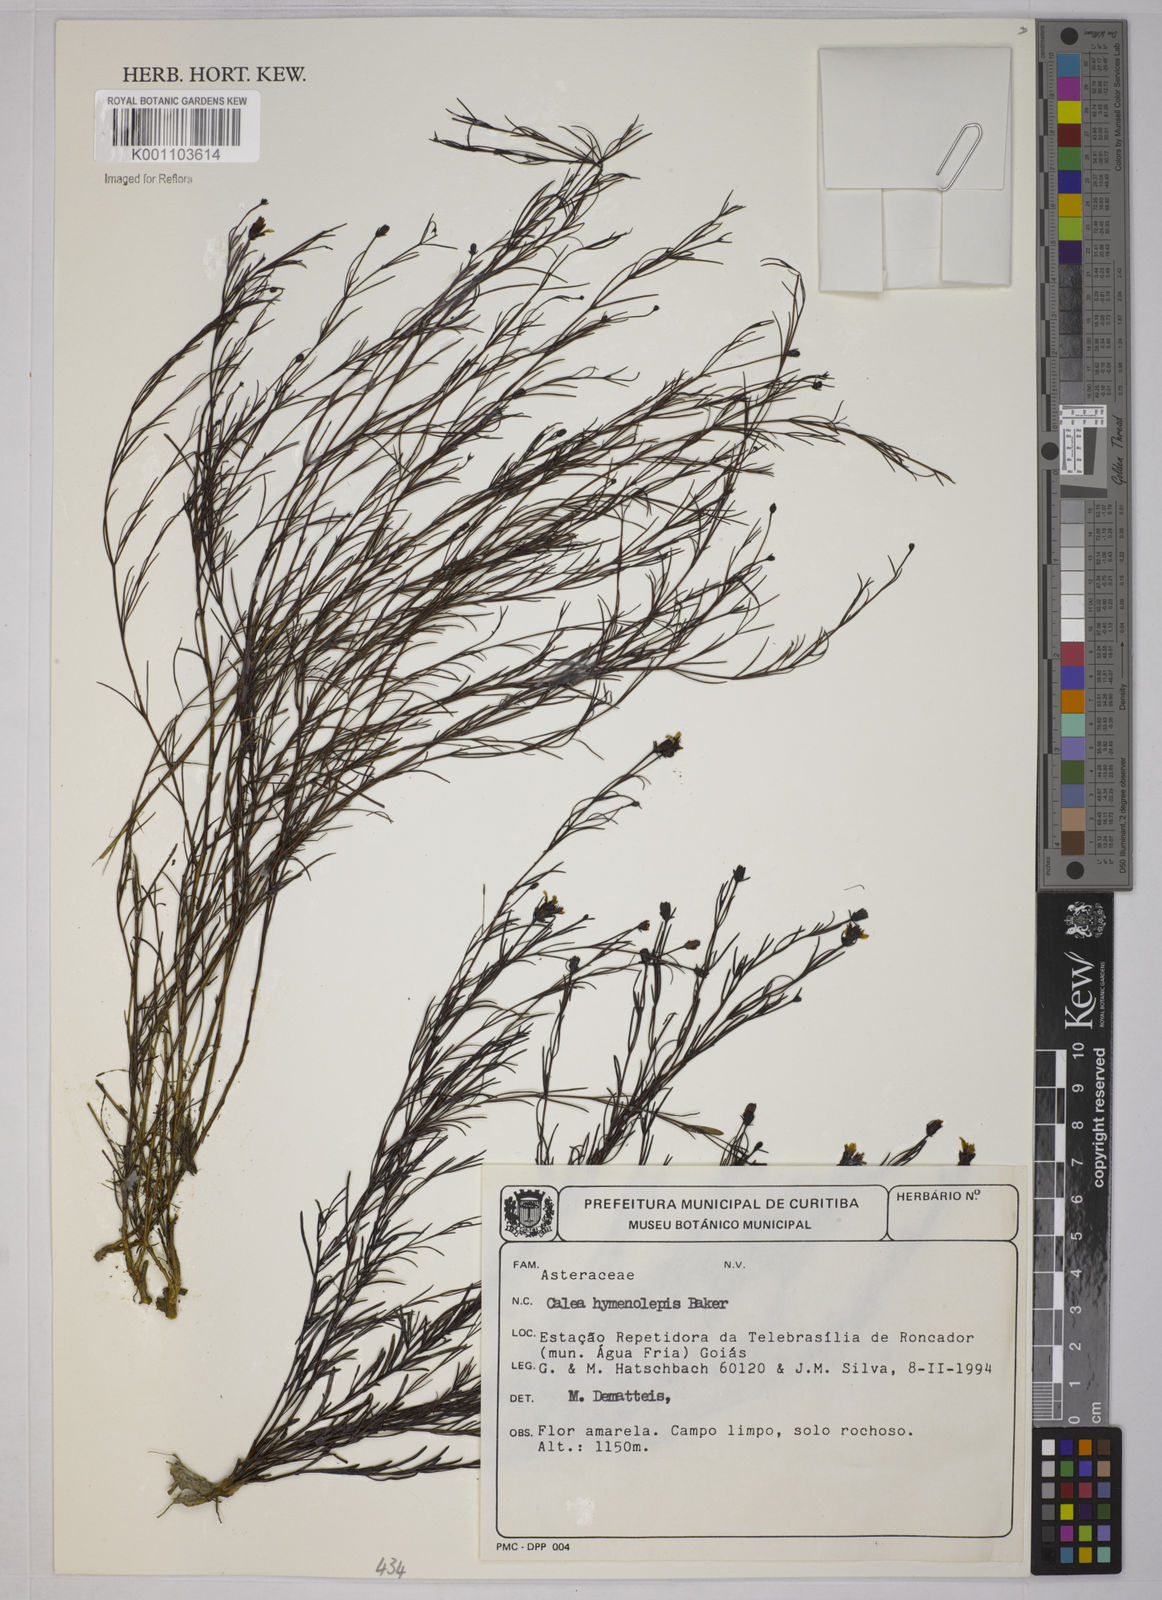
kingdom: Plantae
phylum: Tracheophyta
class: Magnoliopsida
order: Asterales
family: Asteraceae
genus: Calea
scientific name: Calea hymenolepis
